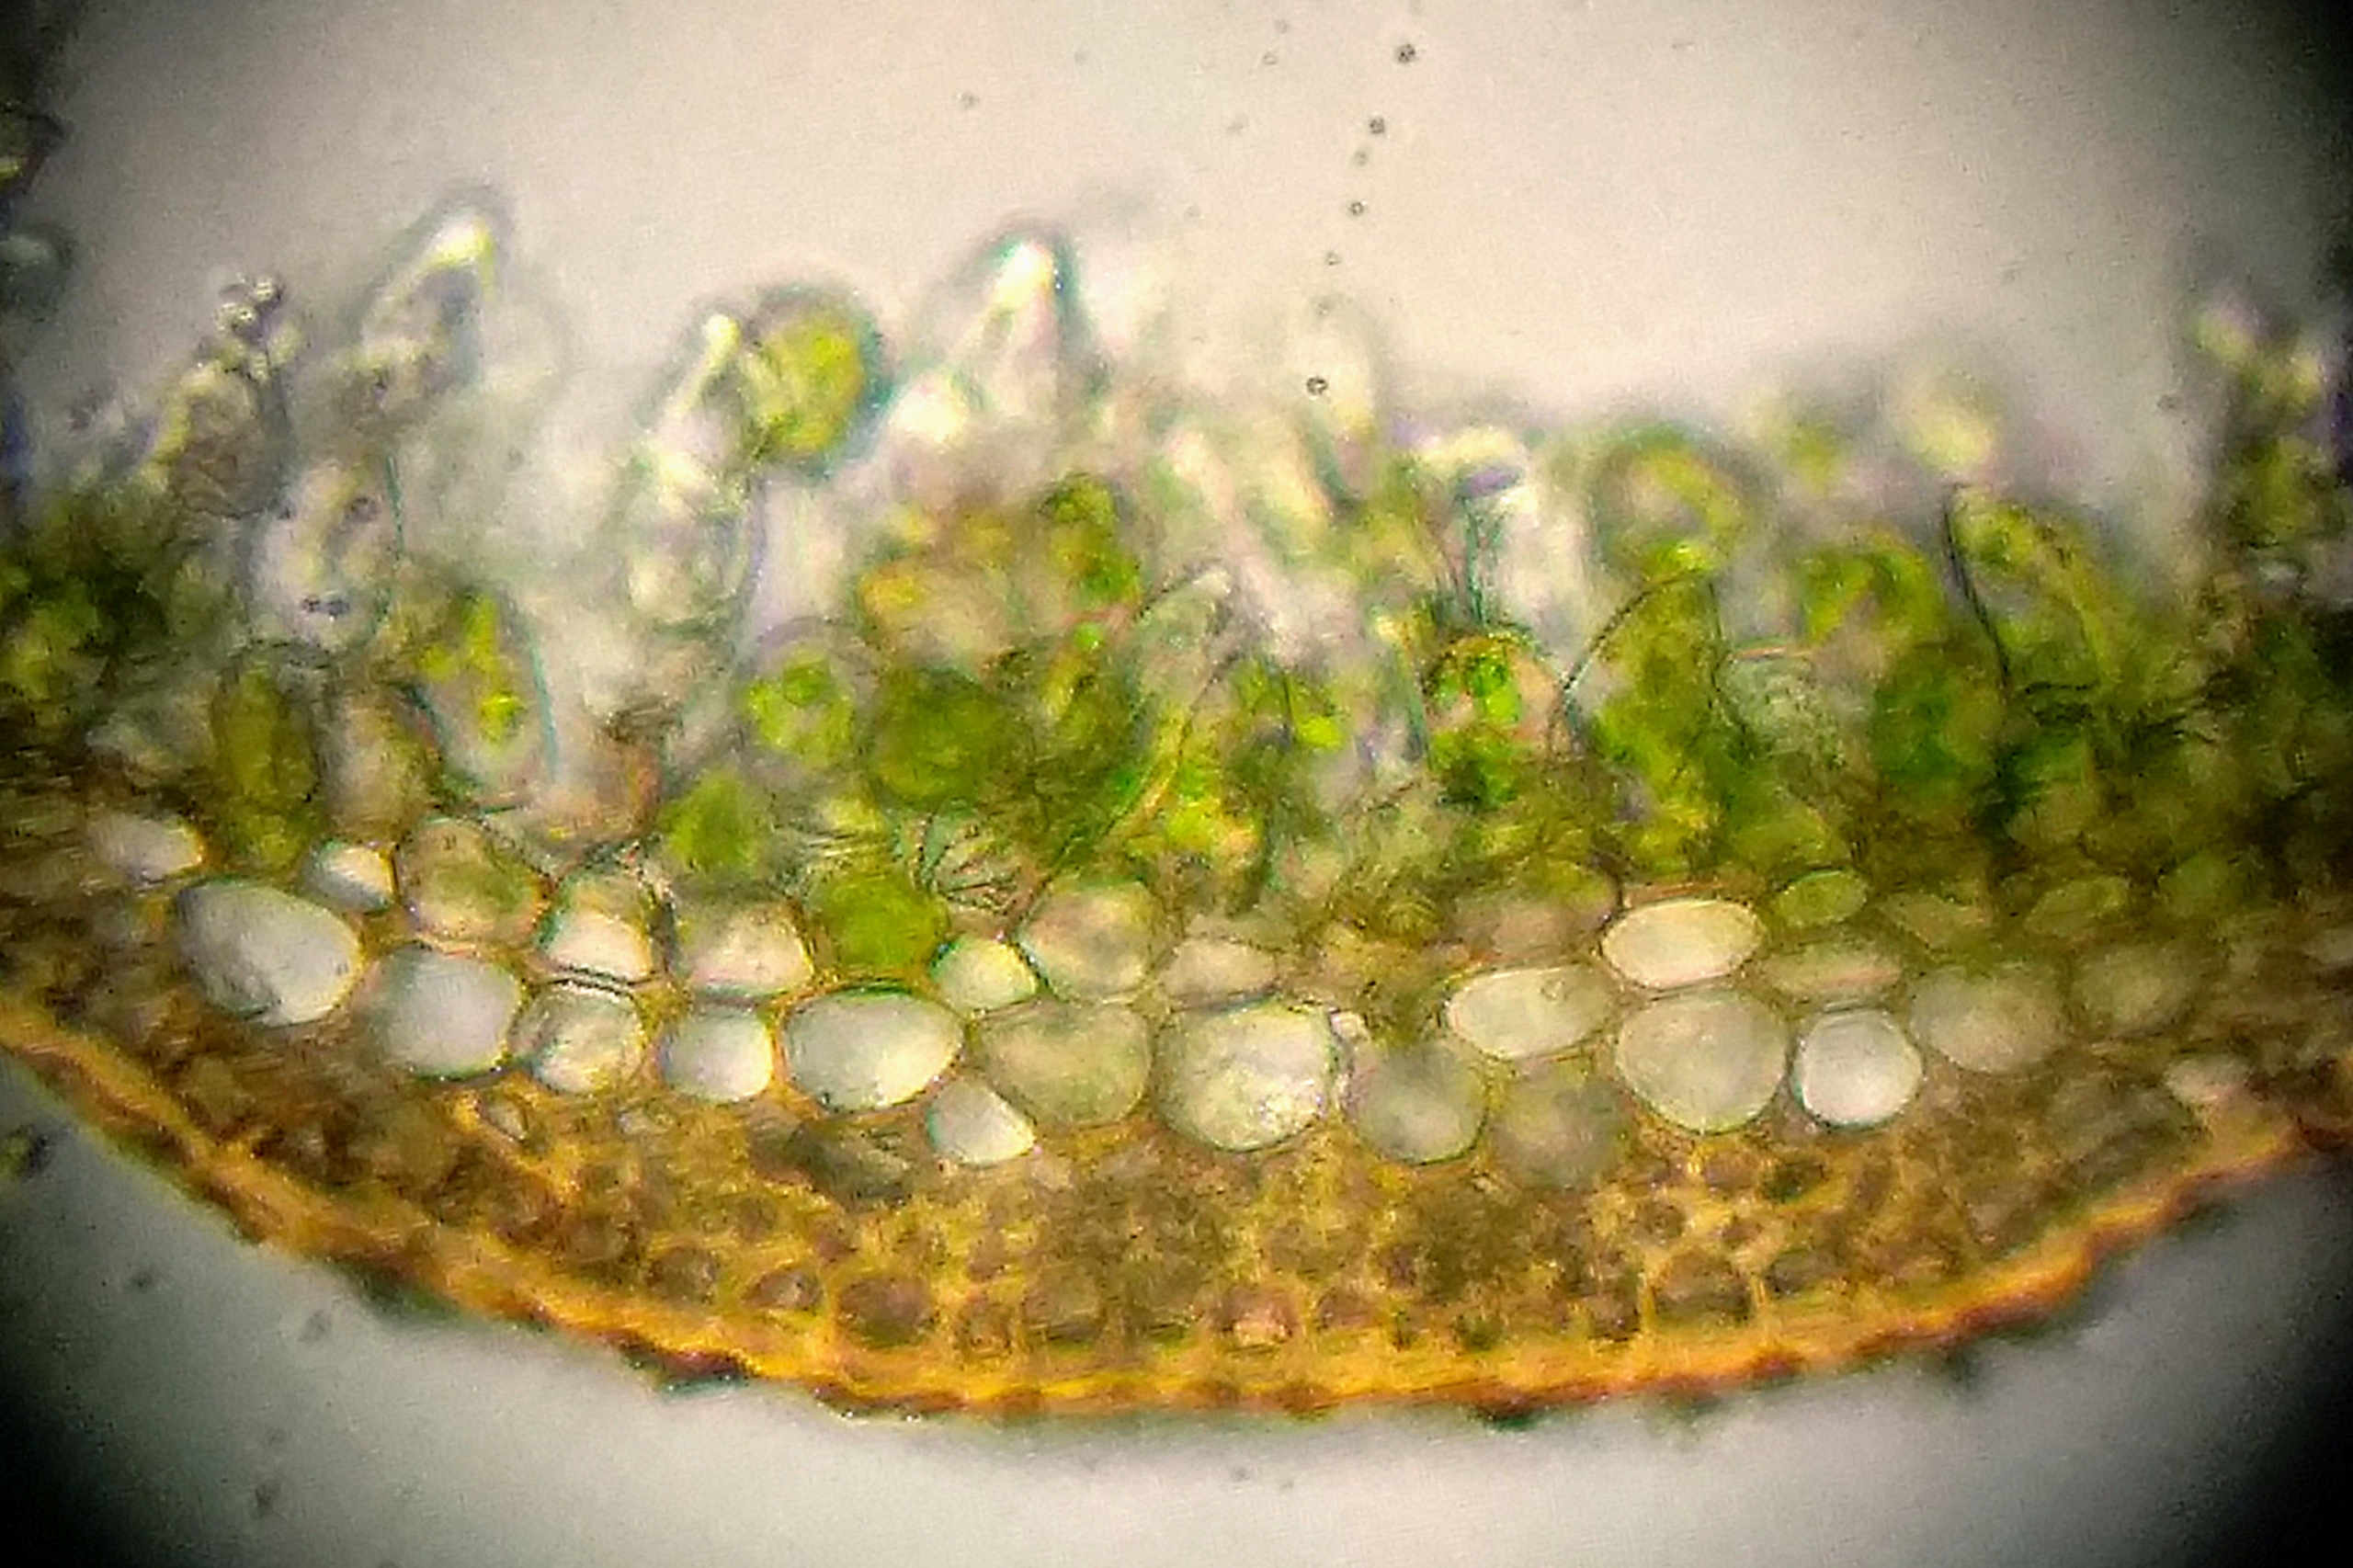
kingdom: Plantae
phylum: Bryophyta
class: Bryopsida
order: Pottiales
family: Pottiaceae
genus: Aloina
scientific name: Aloina rigida
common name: Stiv tøffelmos
